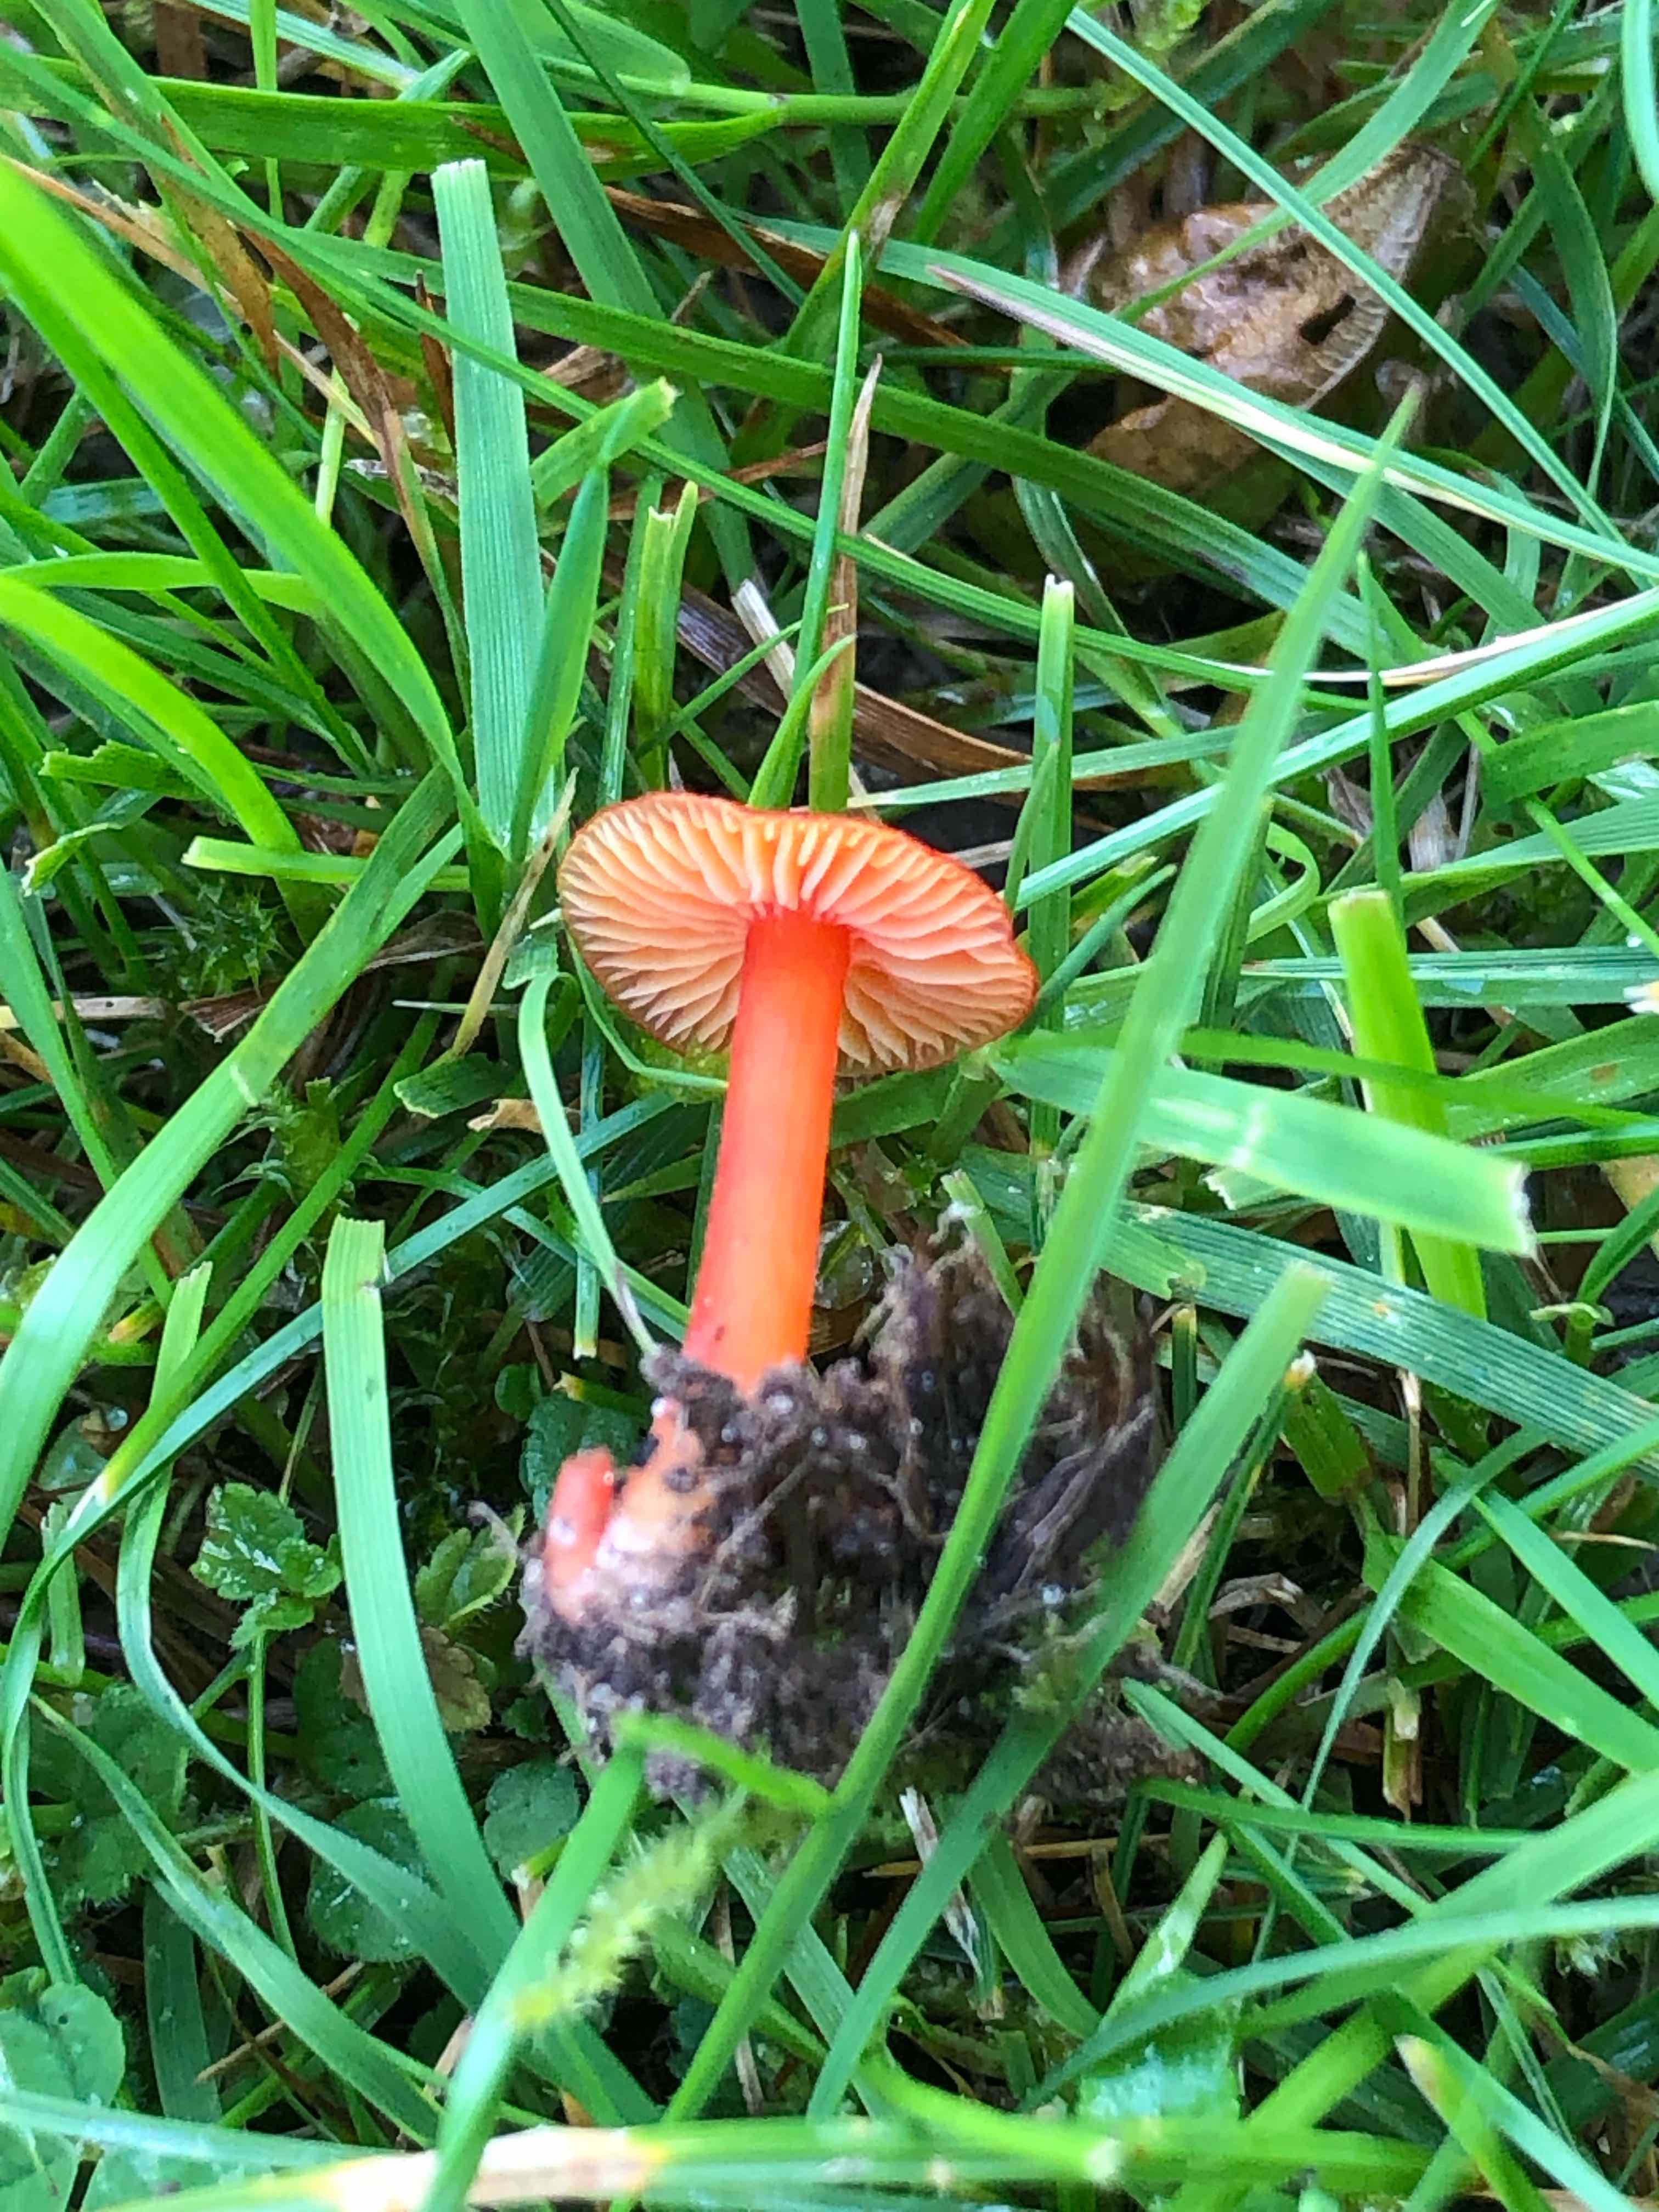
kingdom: Fungi
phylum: Basidiomycota
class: Agaricomycetes
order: Agaricales
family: Hygrophoraceae
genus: Hygrocybe
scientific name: Hygrocybe miniata
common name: mønje-vokshat
